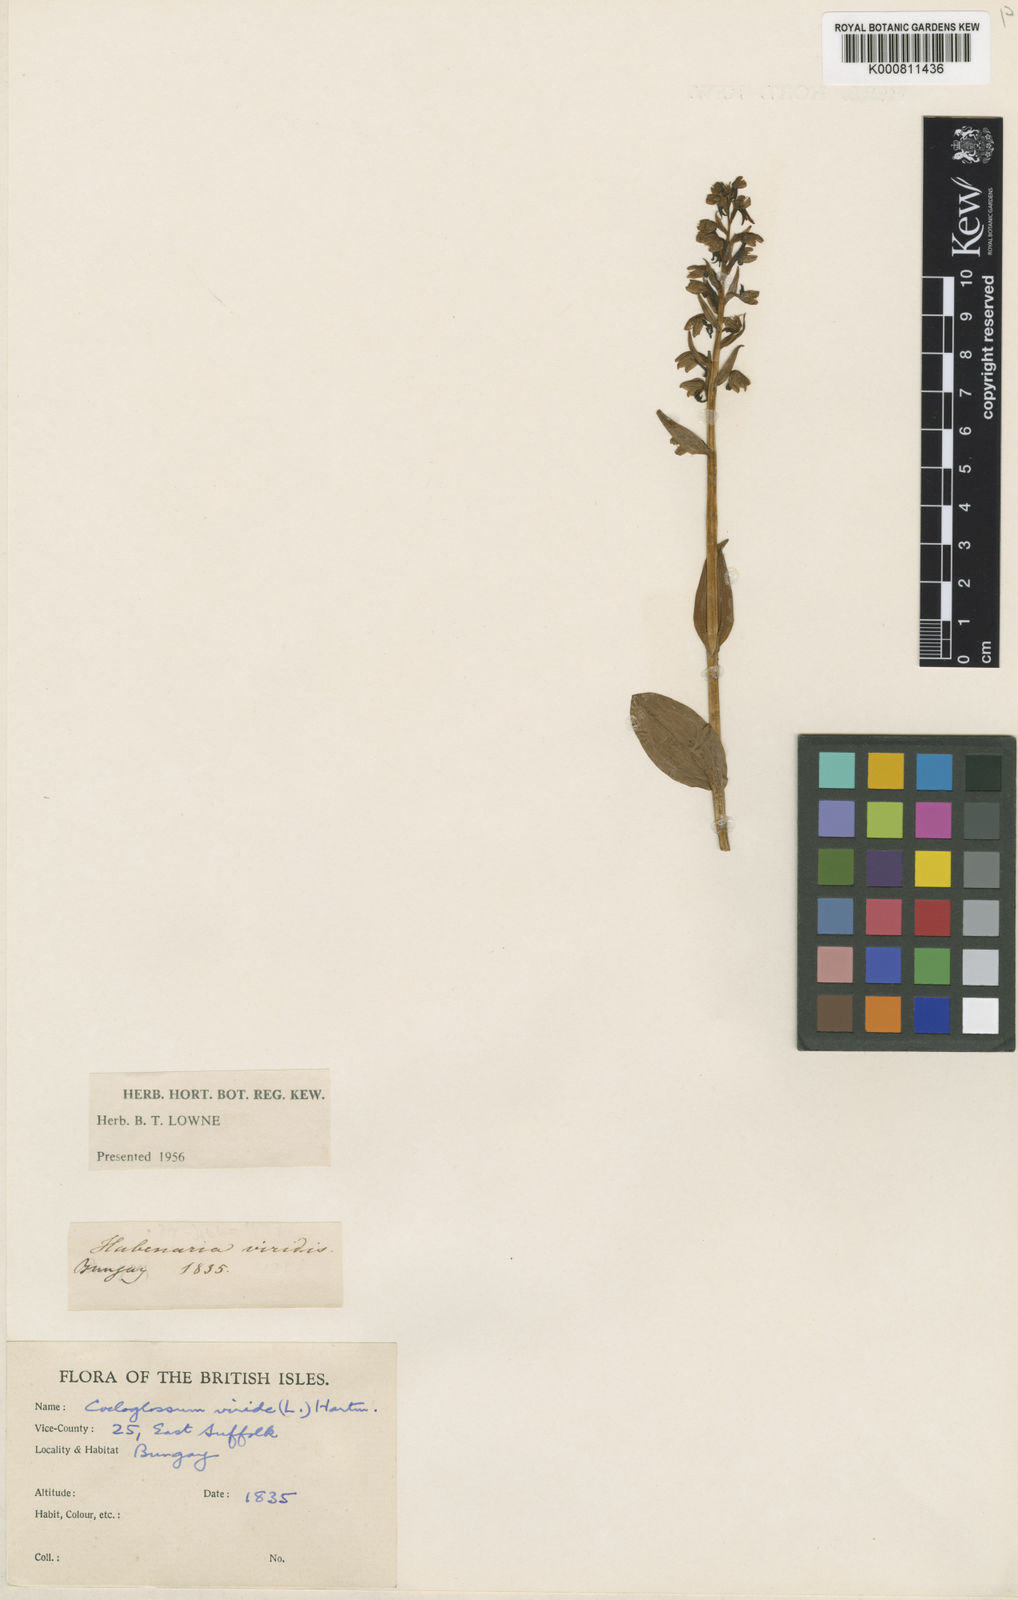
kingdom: Plantae
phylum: Tracheophyta
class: Liliopsida
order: Asparagales
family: Orchidaceae
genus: Dactylorhiza
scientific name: Dactylorhiza viridis
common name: Longbract frog orchid
